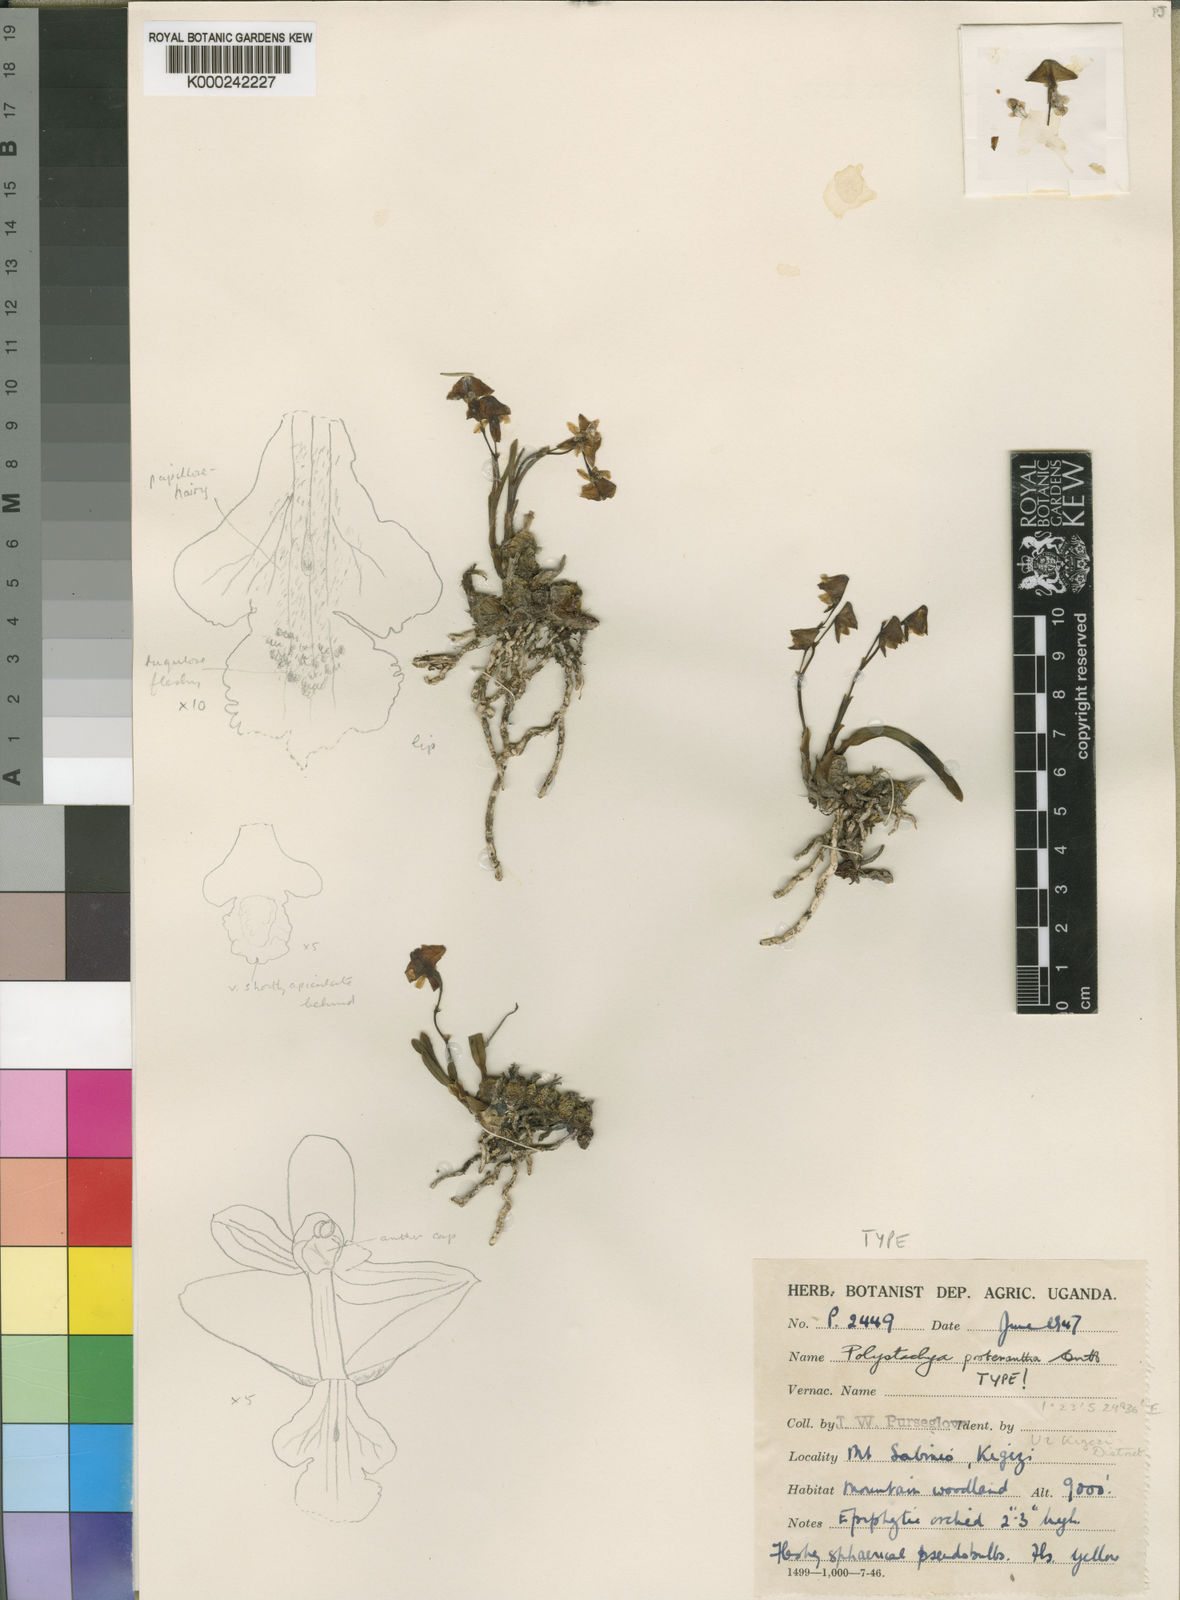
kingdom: Plantae
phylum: Tracheophyta
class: Liliopsida
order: Asparagales
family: Orchidaceae
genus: Polystachya
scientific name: Polystachya proterantha
